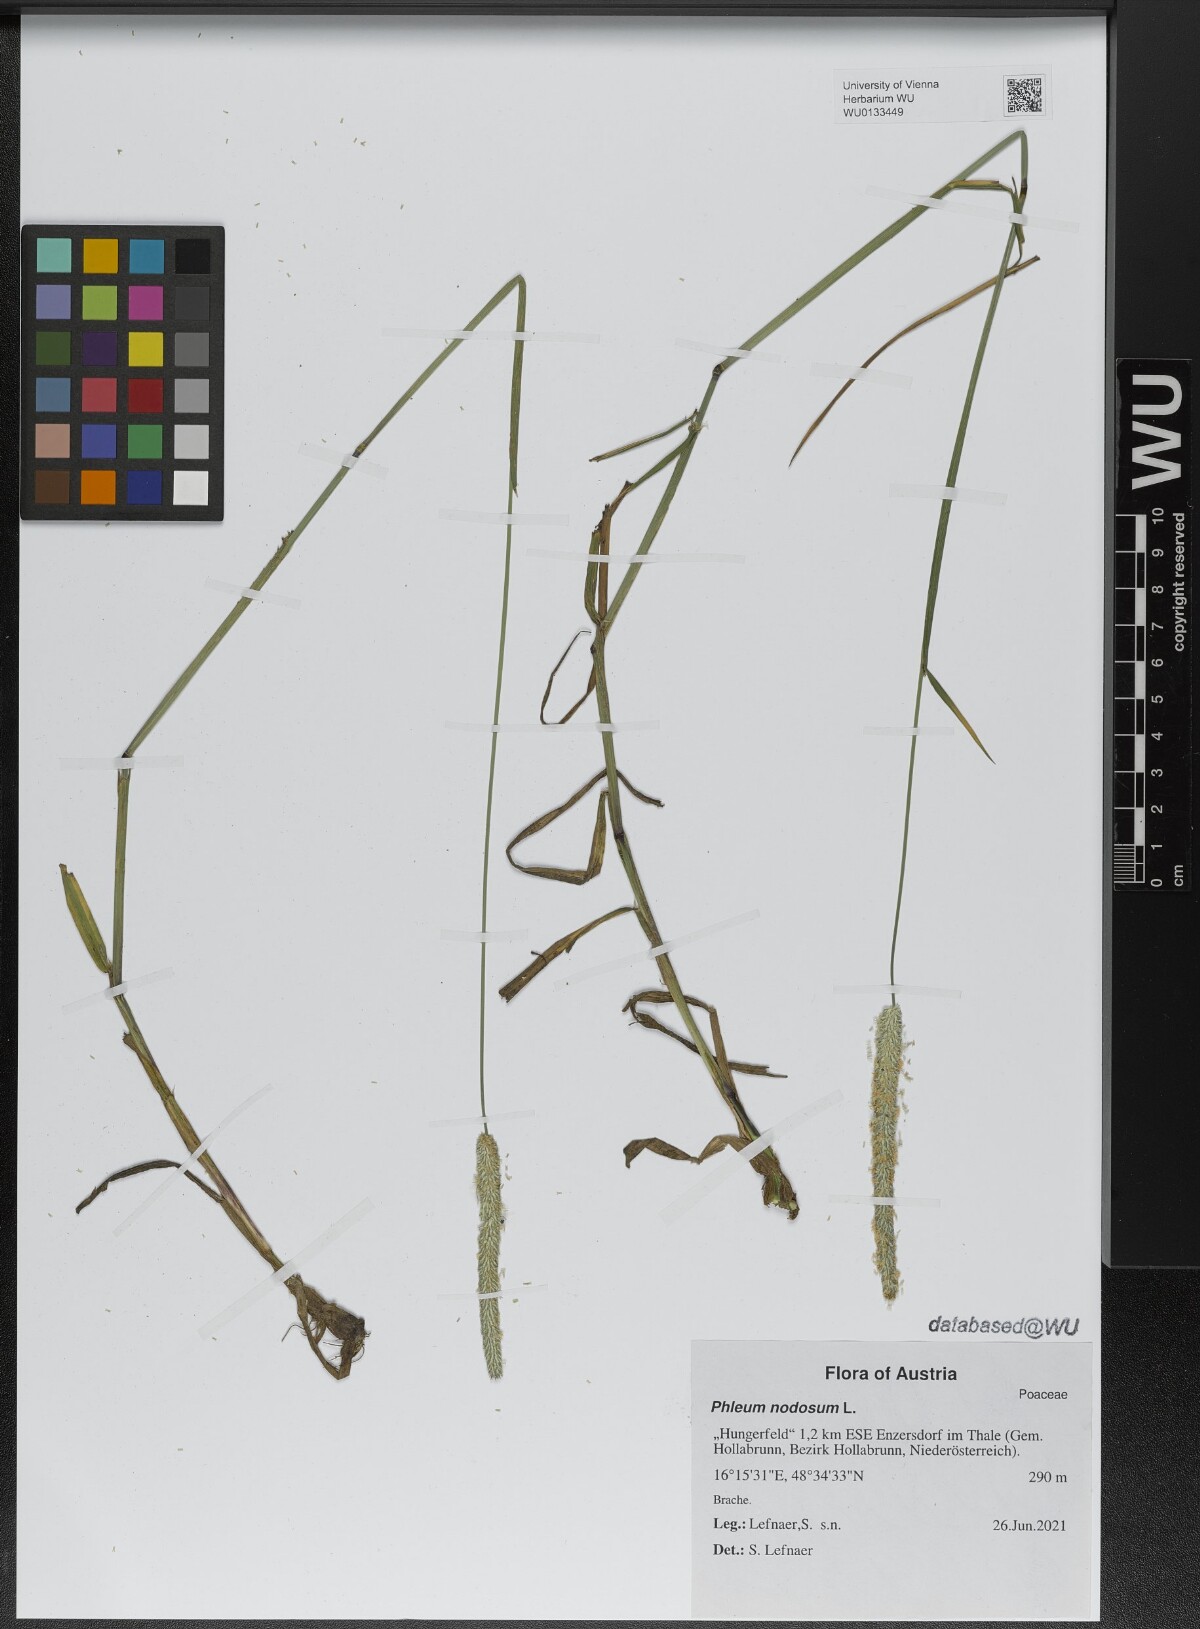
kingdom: Plantae
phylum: Tracheophyta
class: Liliopsida
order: Poales
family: Poaceae
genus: Phleum
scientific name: Phleum pratense
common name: Timothy grass
